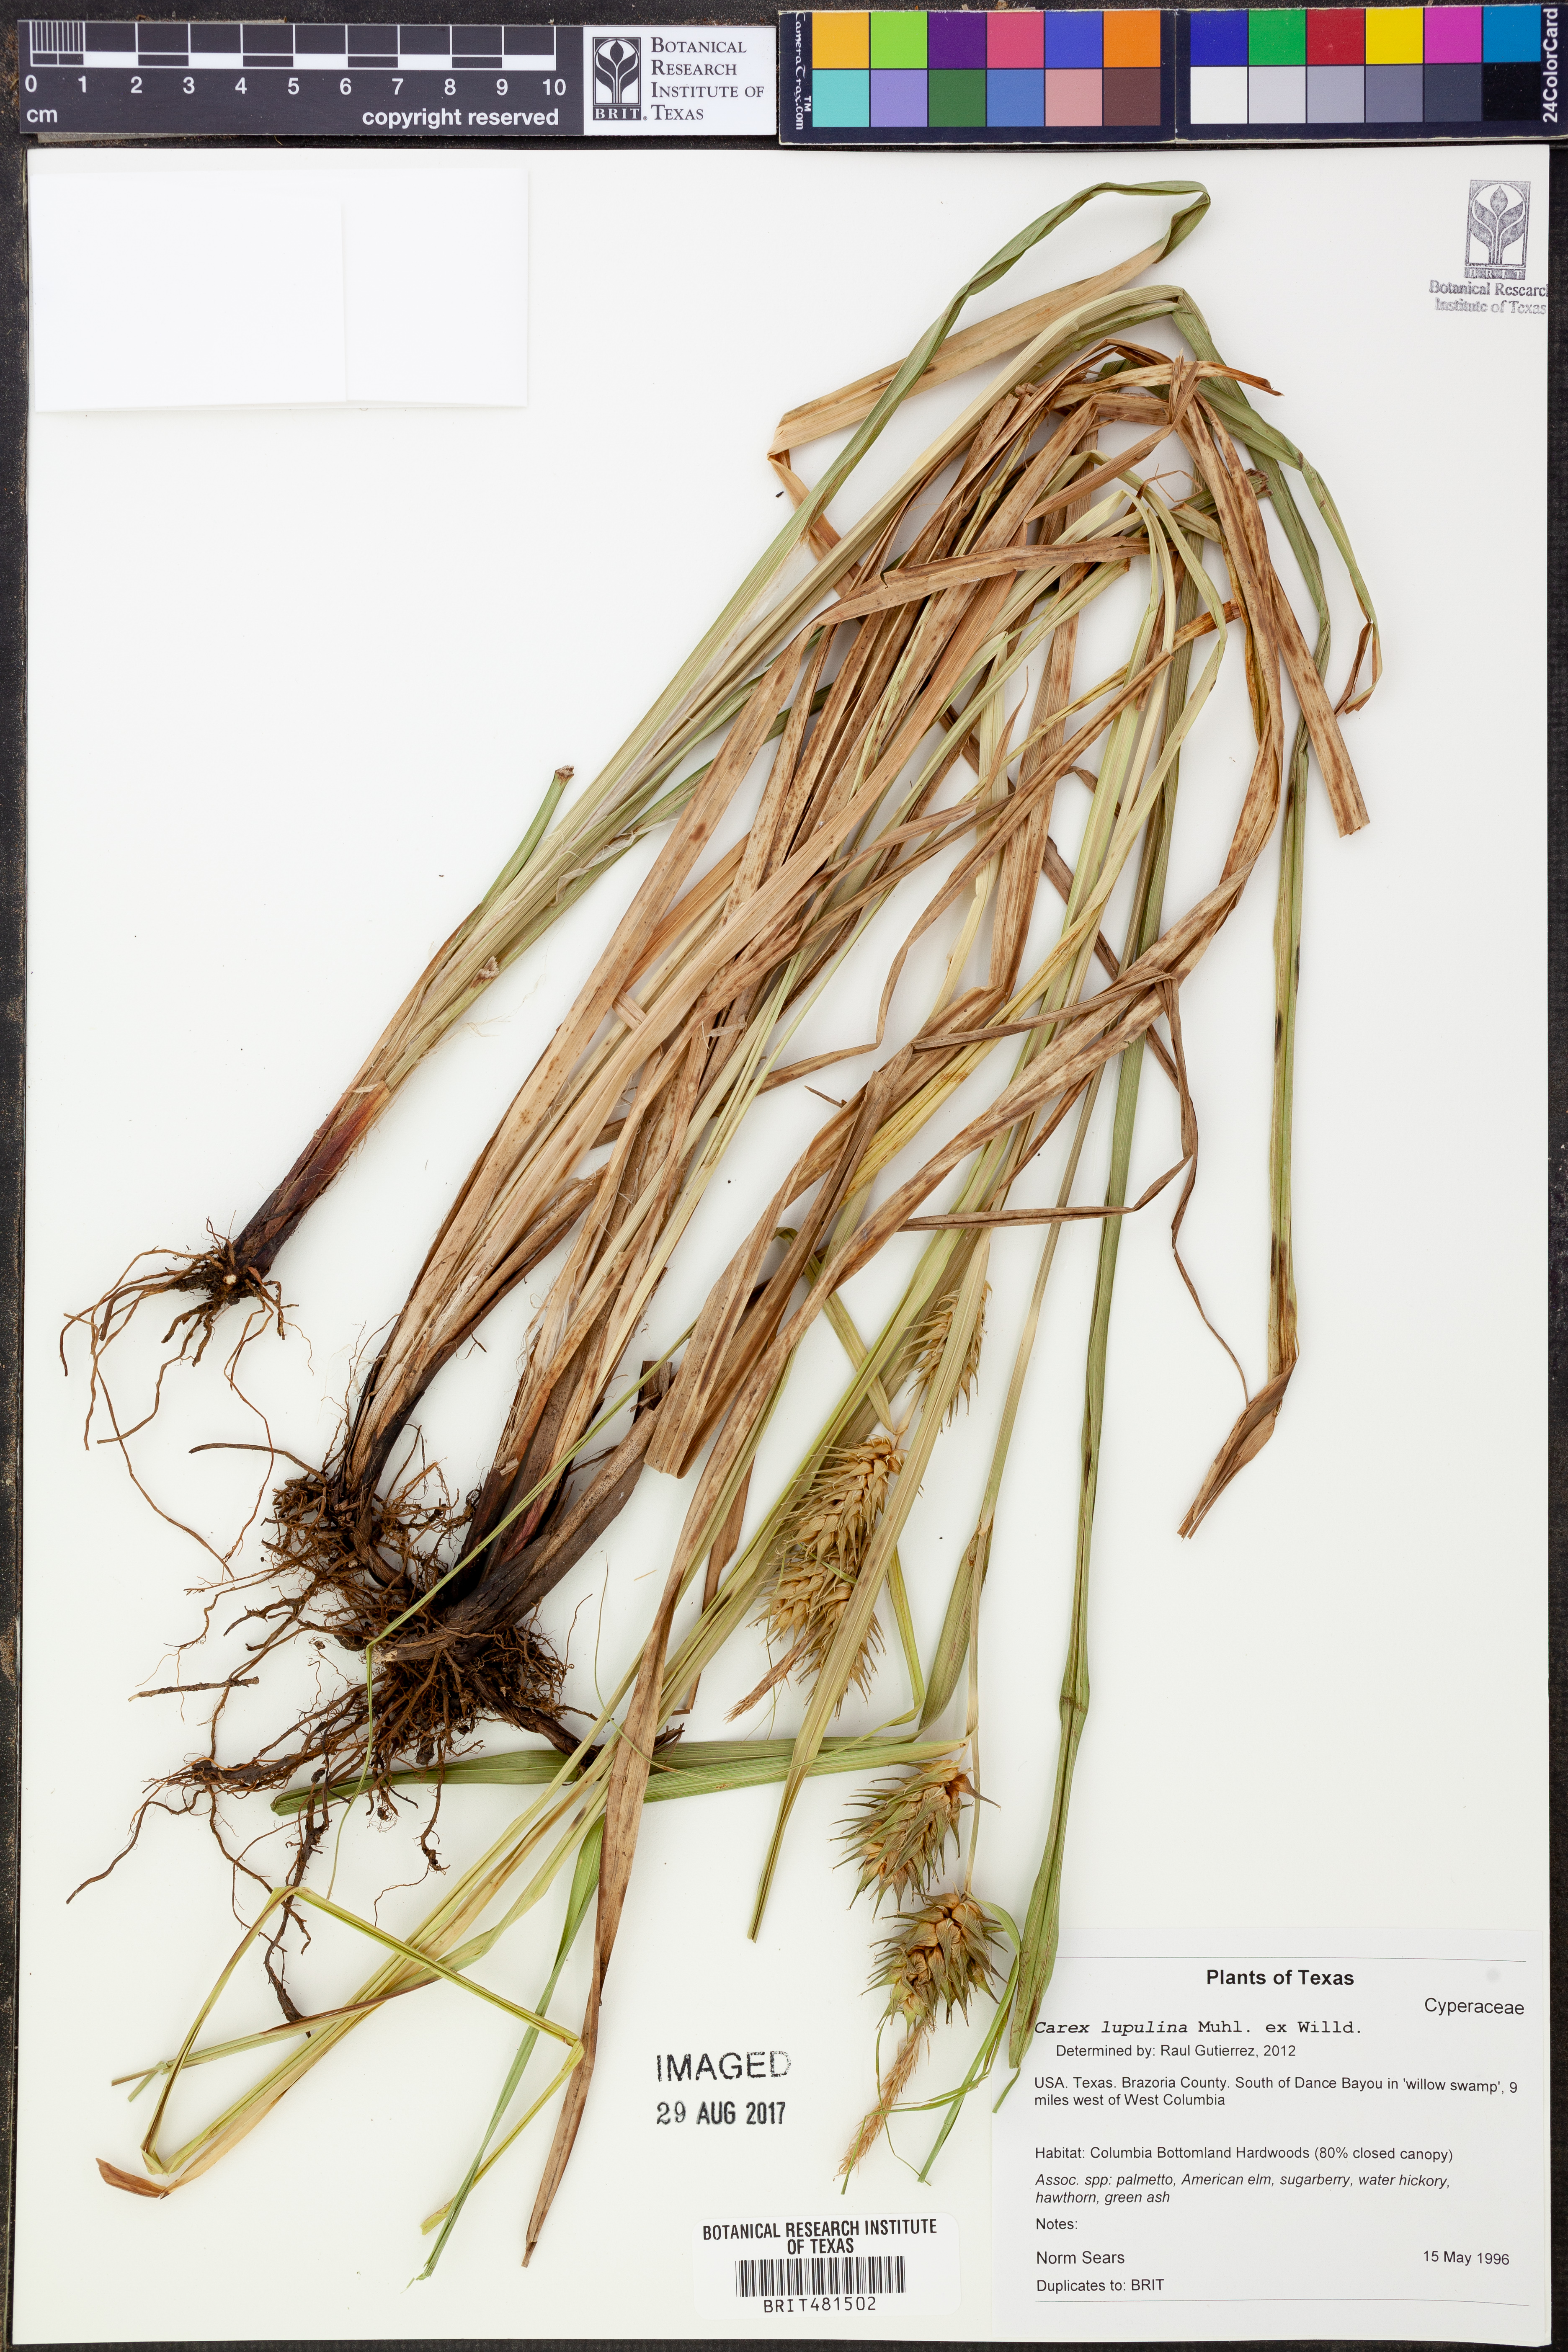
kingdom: Plantae
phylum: Tracheophyta
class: Liliopsida
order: Poales
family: Cyperaceae
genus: Carex
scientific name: Carex lupulina
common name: Hop sedge
